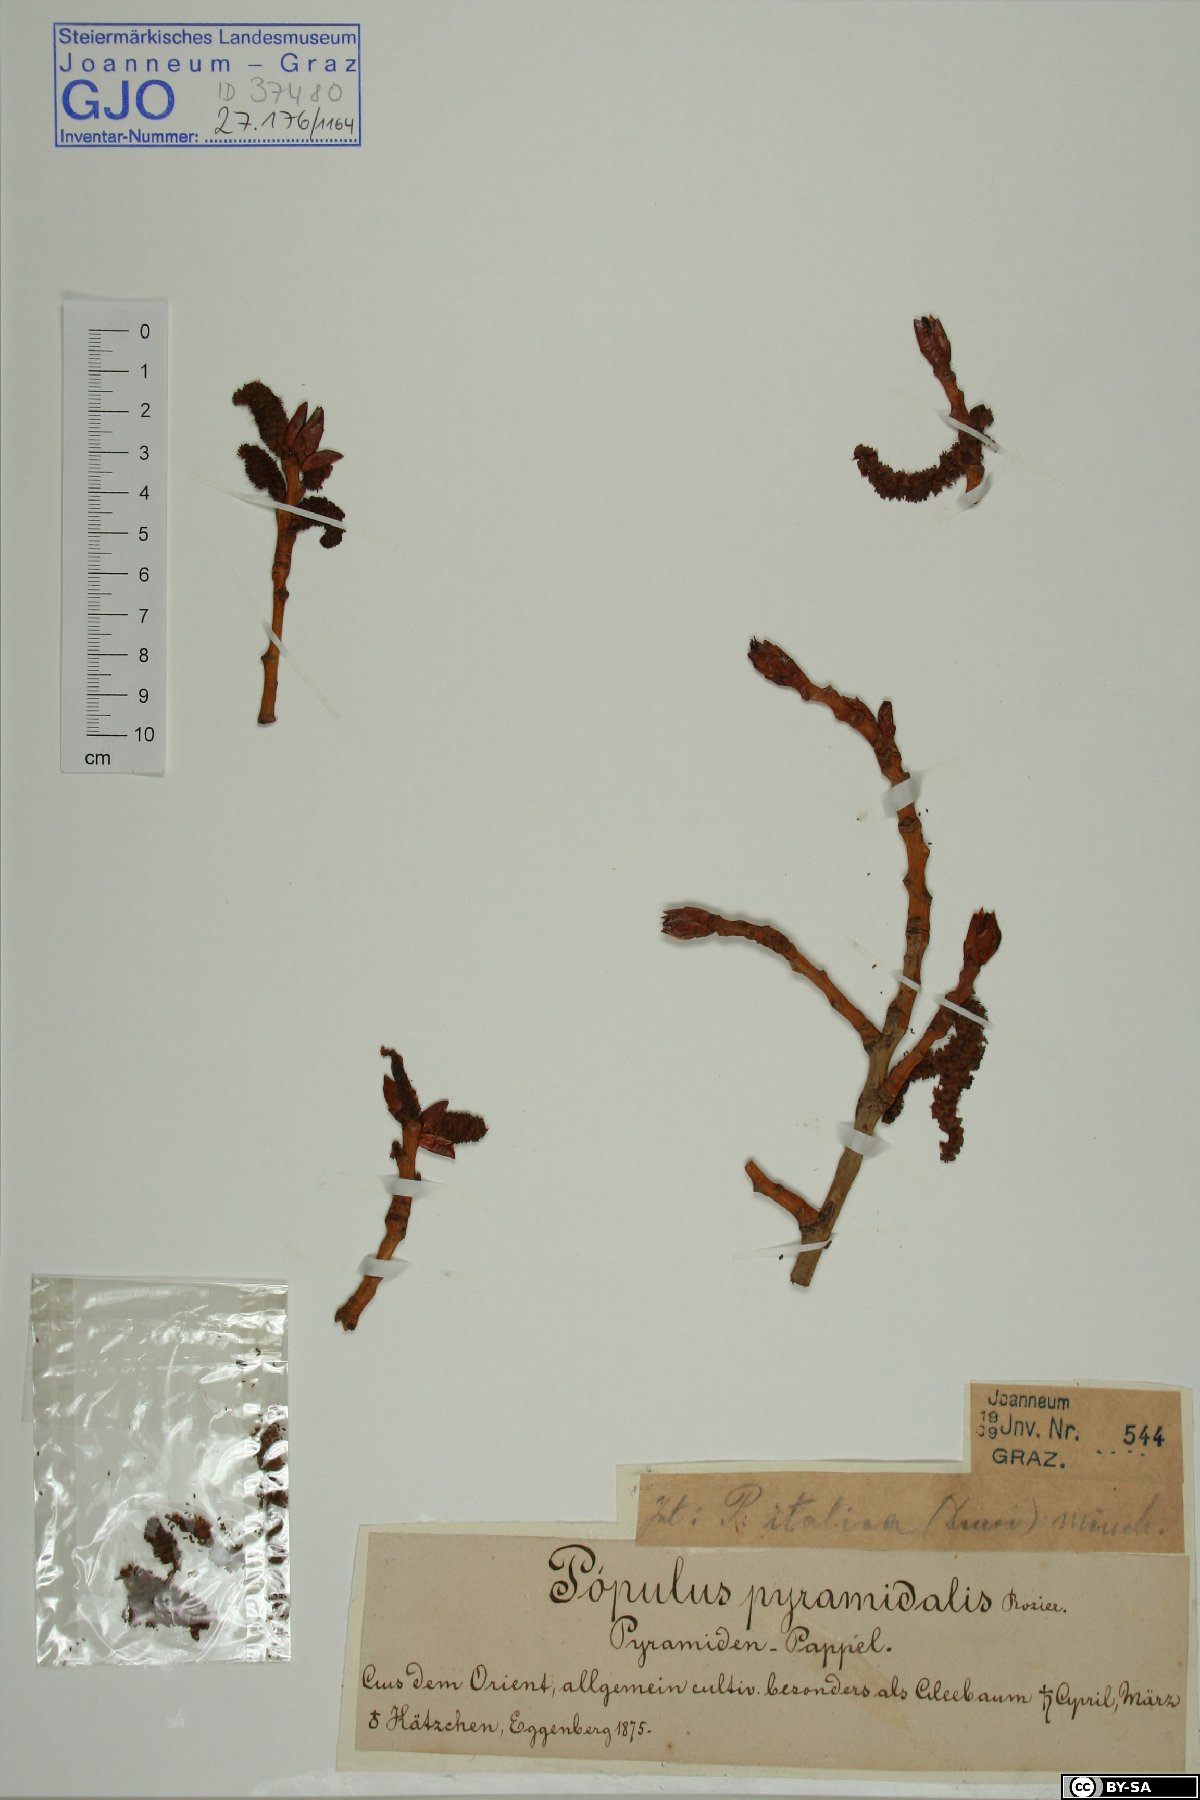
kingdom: Plantae
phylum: Tracheophyta
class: Magnoliopsida
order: Malpighiales
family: Salicaceae
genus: Populus
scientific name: Populus nigra
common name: Black poplar
